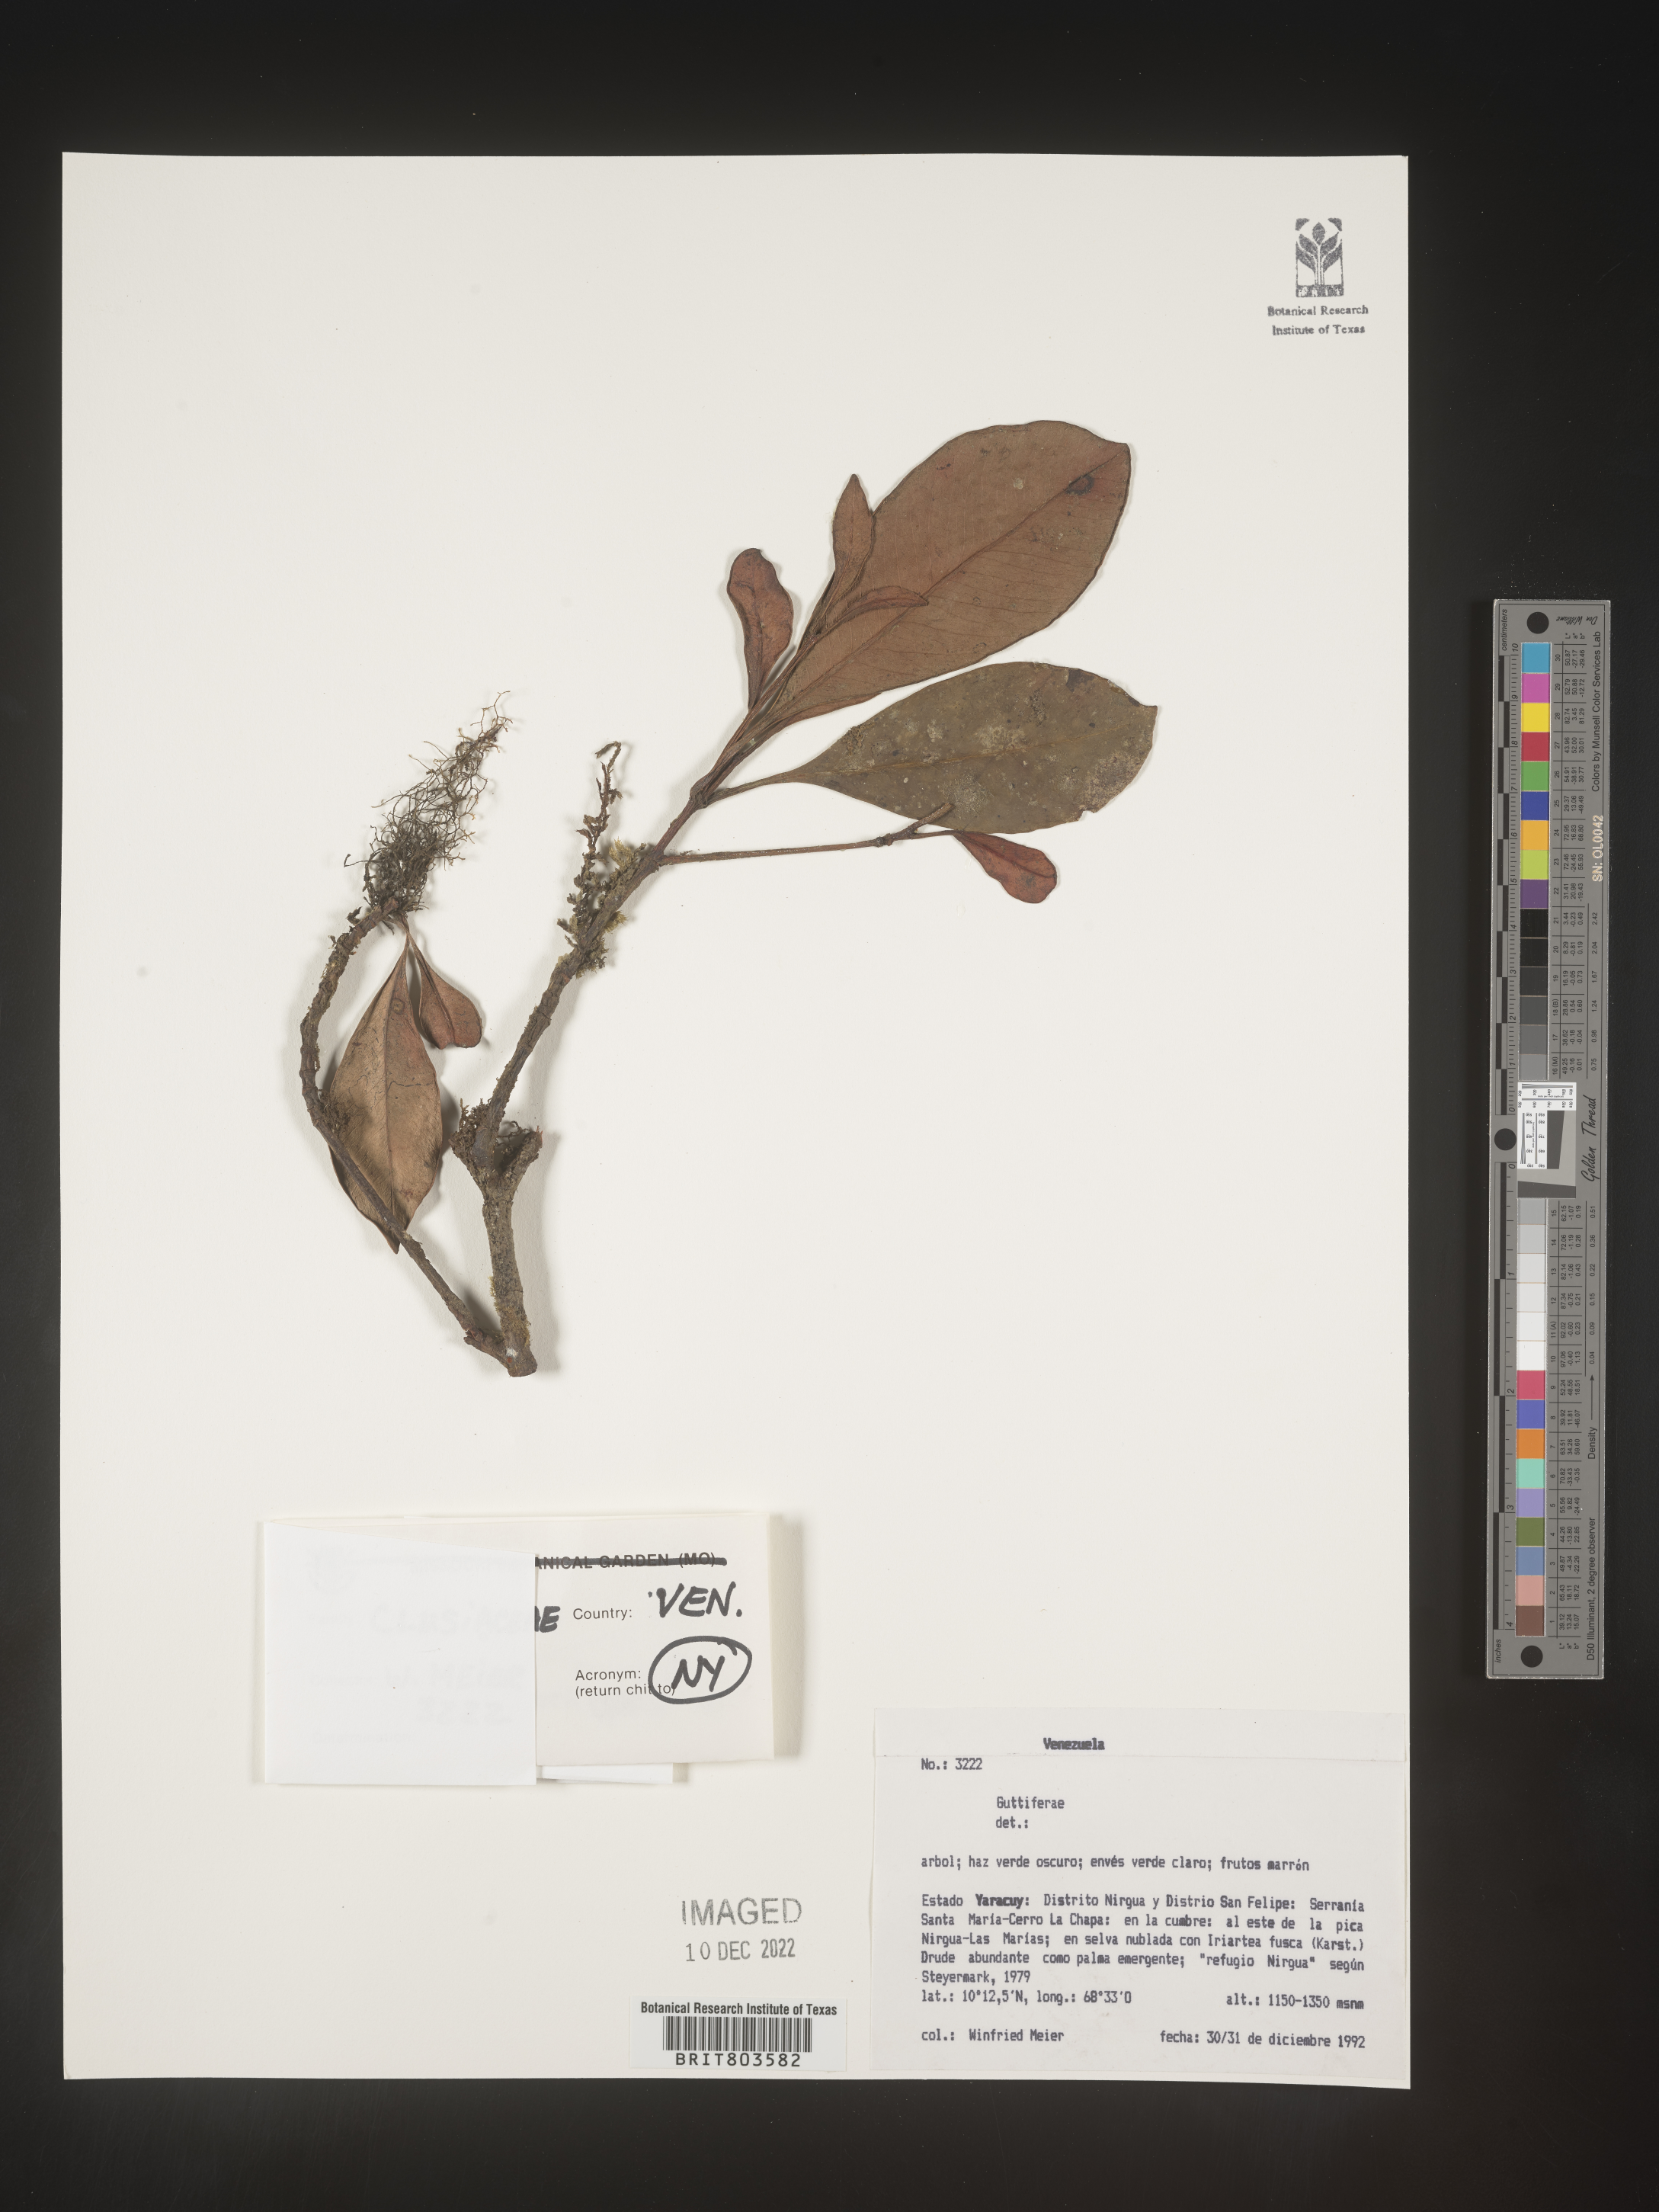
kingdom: Plantae
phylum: Tracheophyta
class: Magnoliopsida
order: Malpighiales
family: Clusiaceae
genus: Tovomita
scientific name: Tovomita
